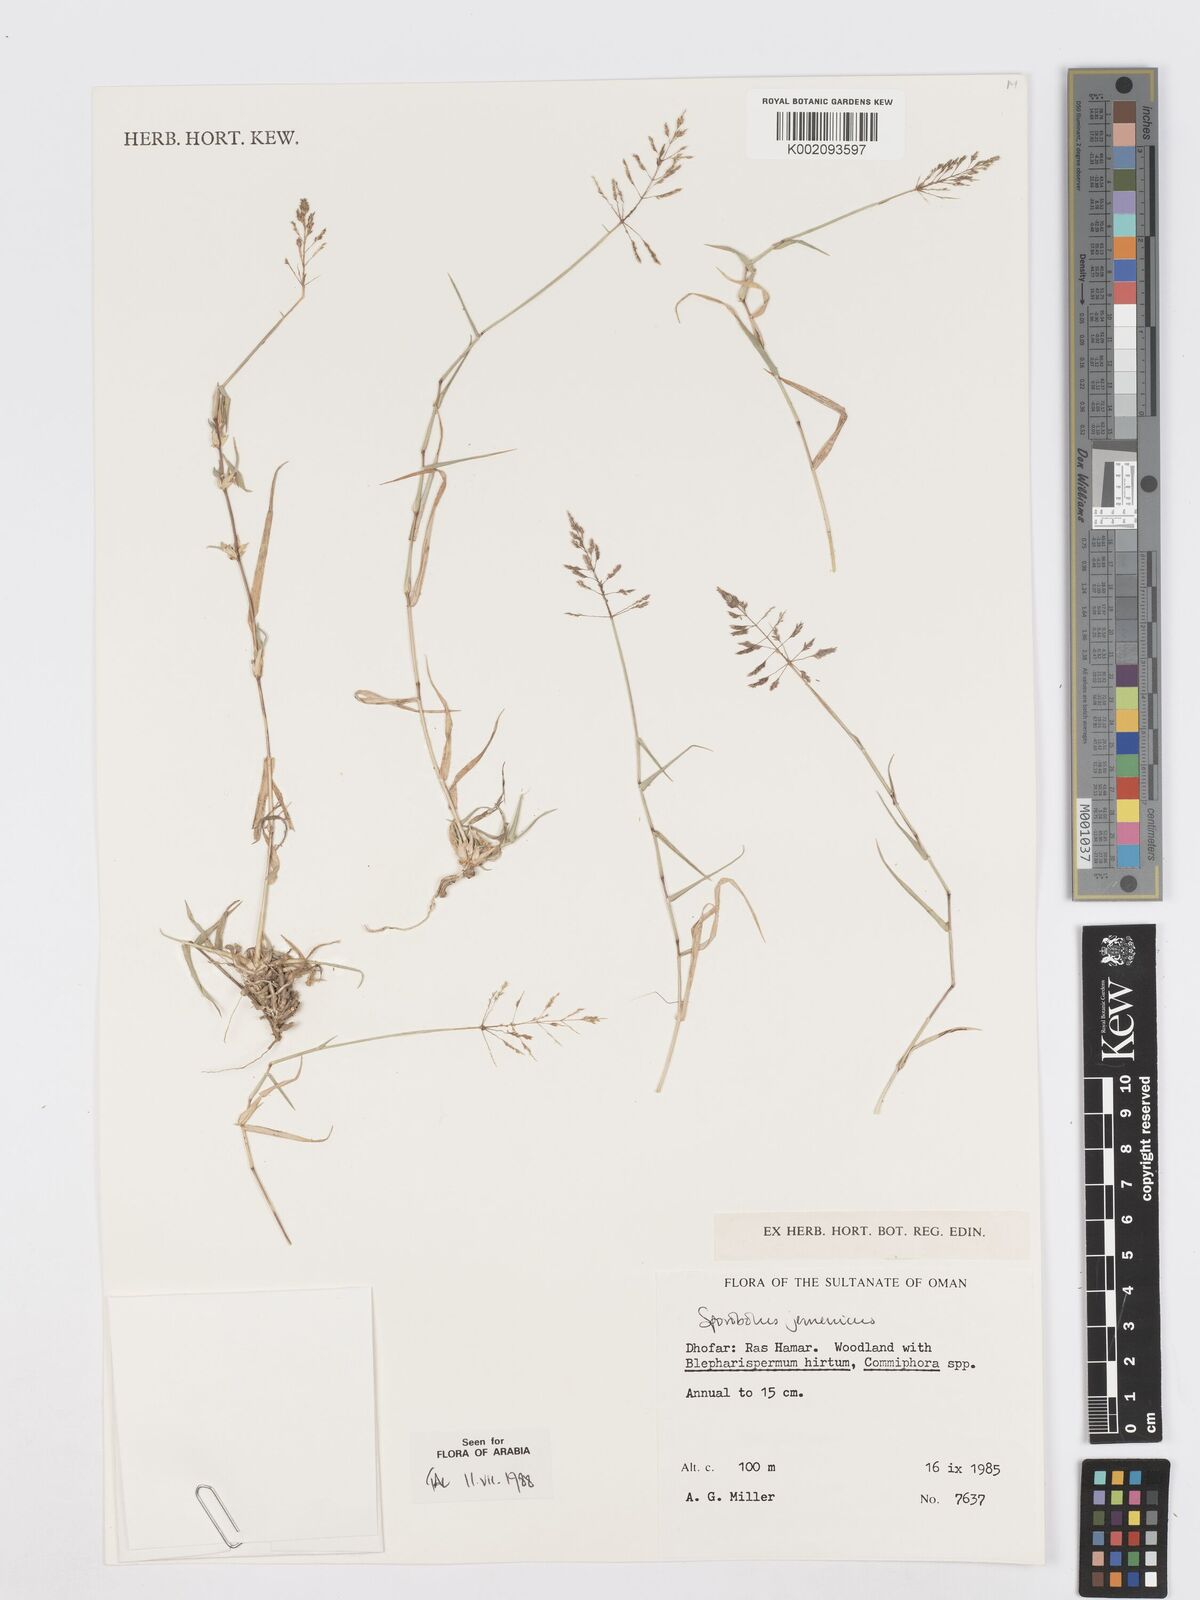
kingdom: Plantae
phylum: Tracheophyta
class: Liliopsida
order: Poales
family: Poaceae
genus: Sporobolus
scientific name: Sporobolus gloeoclados
